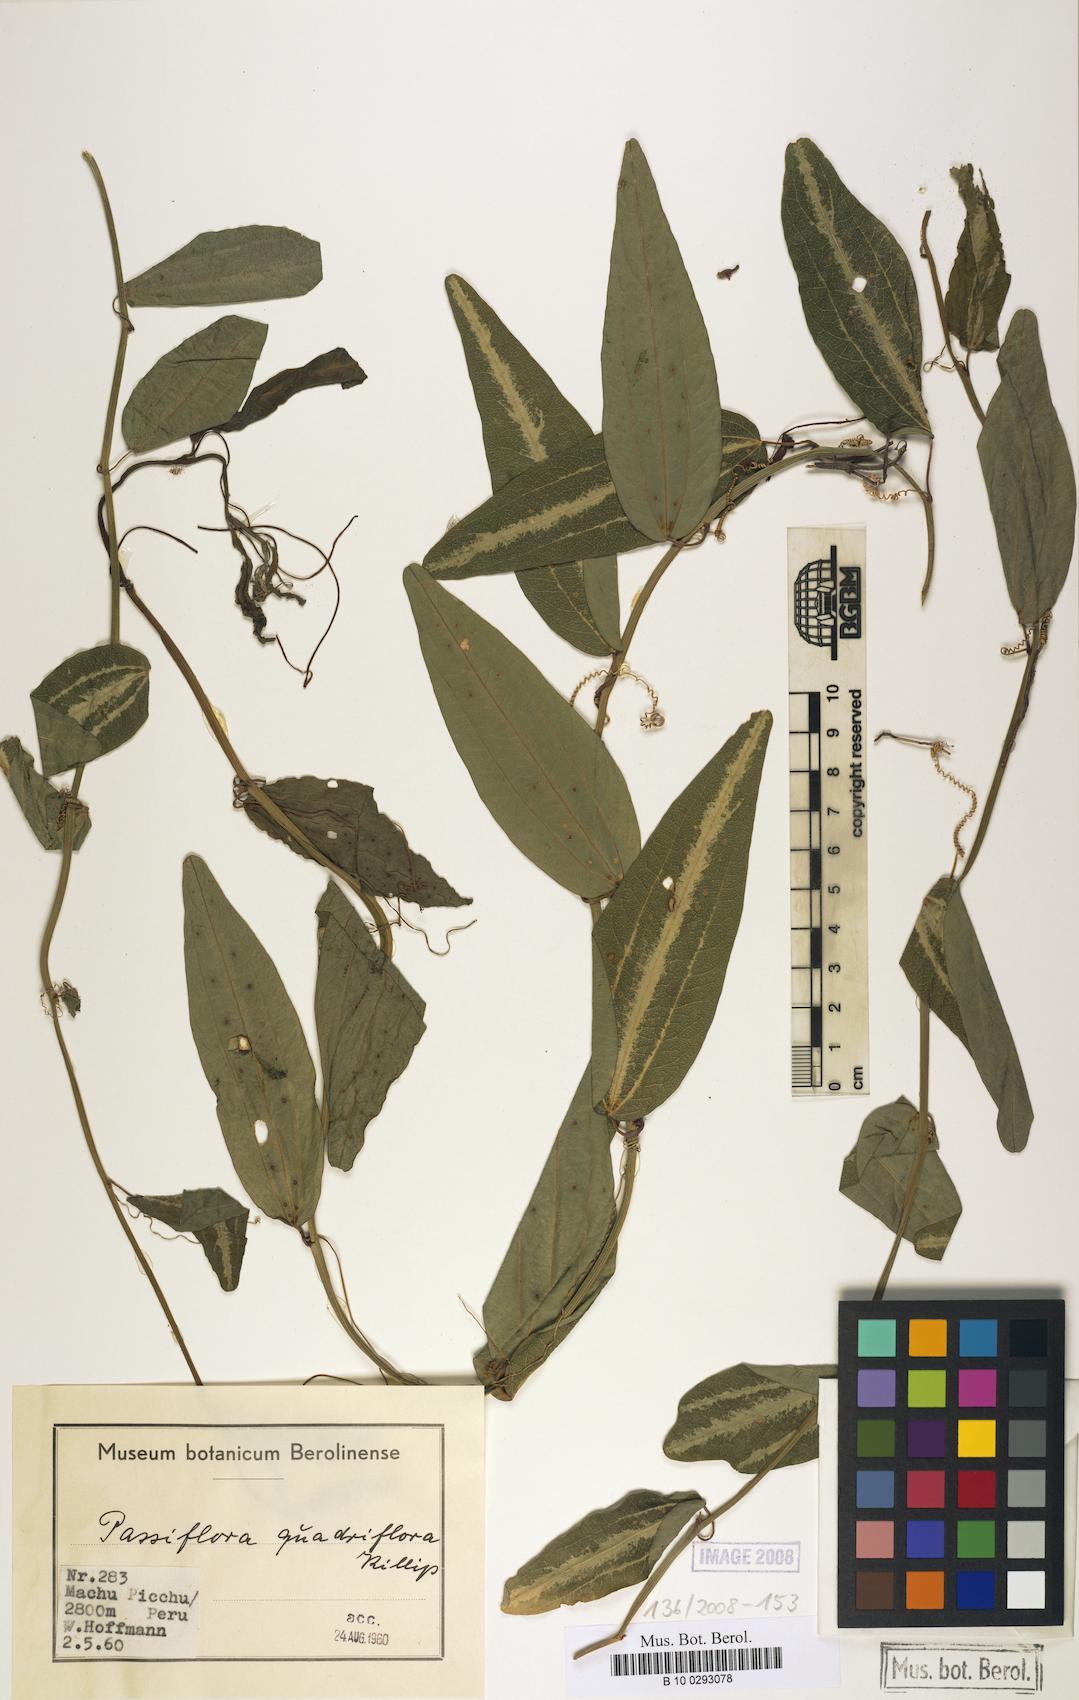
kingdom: Plantae
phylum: Tracheophyta
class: Magnoliopsida
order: Malpighiales
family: Passifloraceae
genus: Passiflora
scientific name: Passiflora quadriflora
